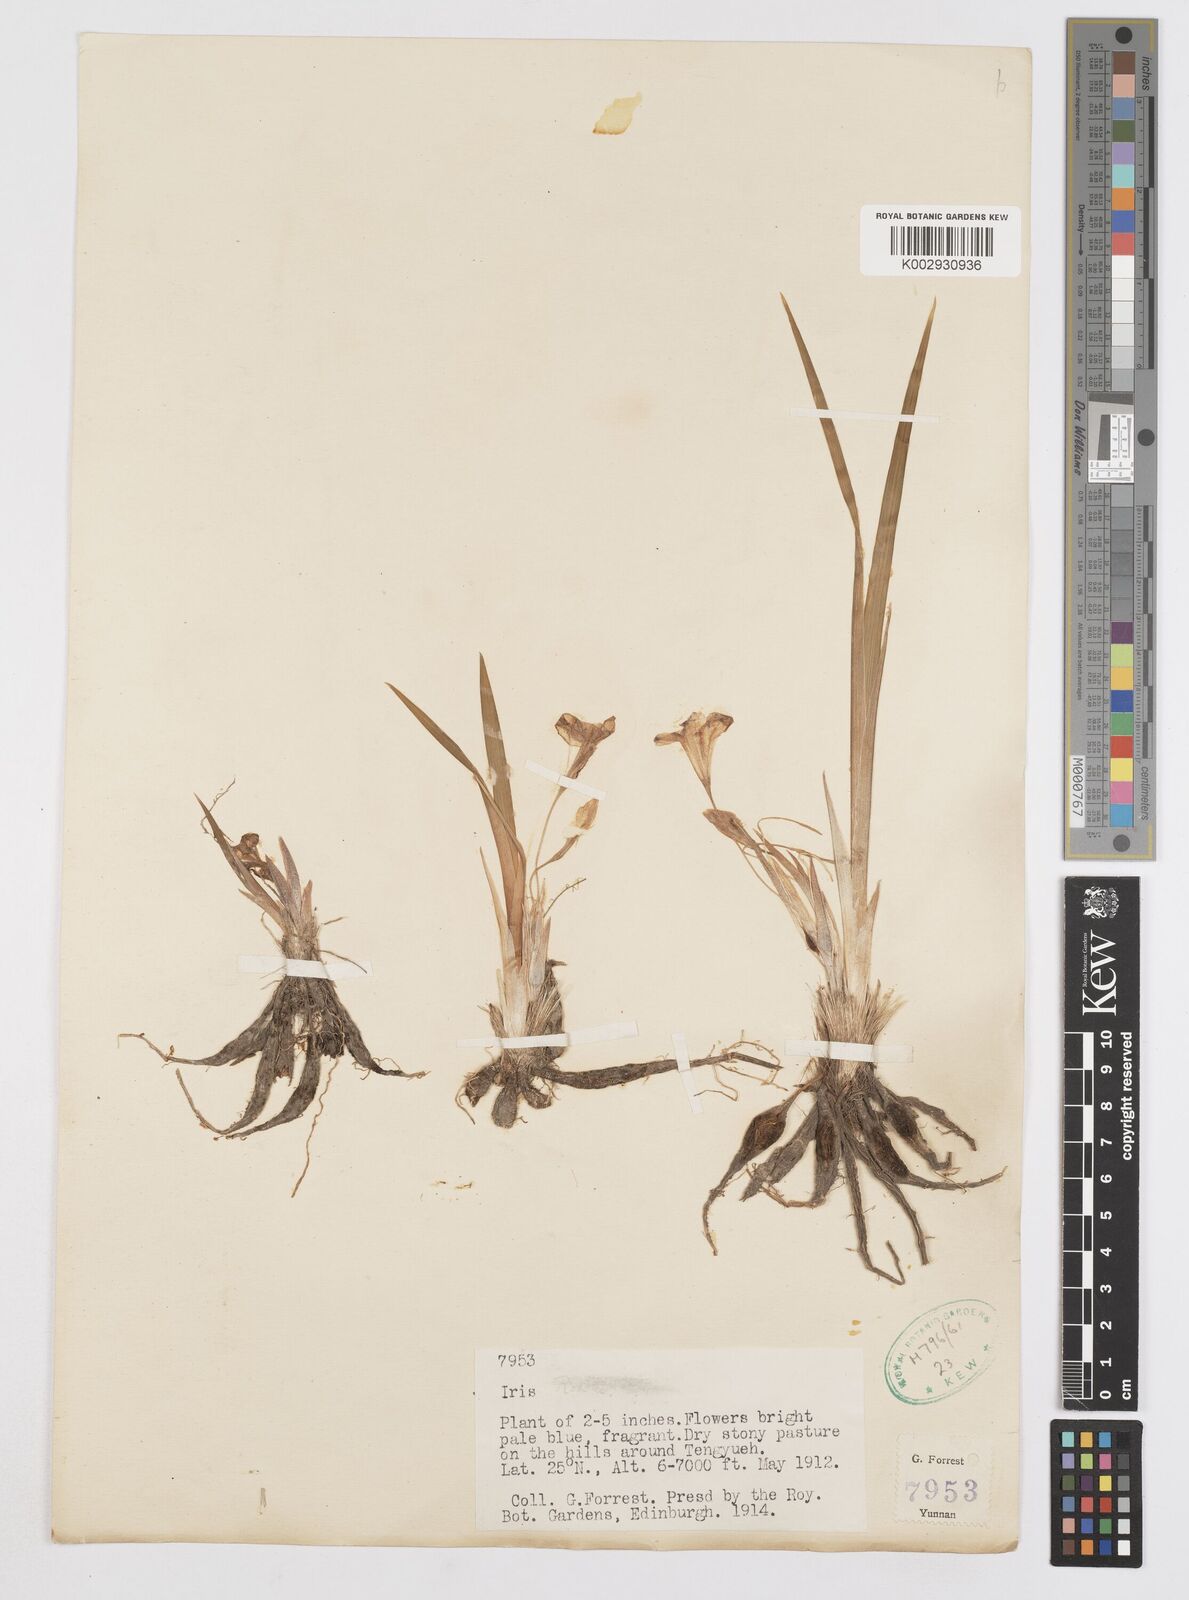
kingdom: Plantae
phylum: Tracheophyta
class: Liliopsida
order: Asparagales
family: Iridaceae
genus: Iris
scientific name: Iris collettii
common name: Plateau iris
